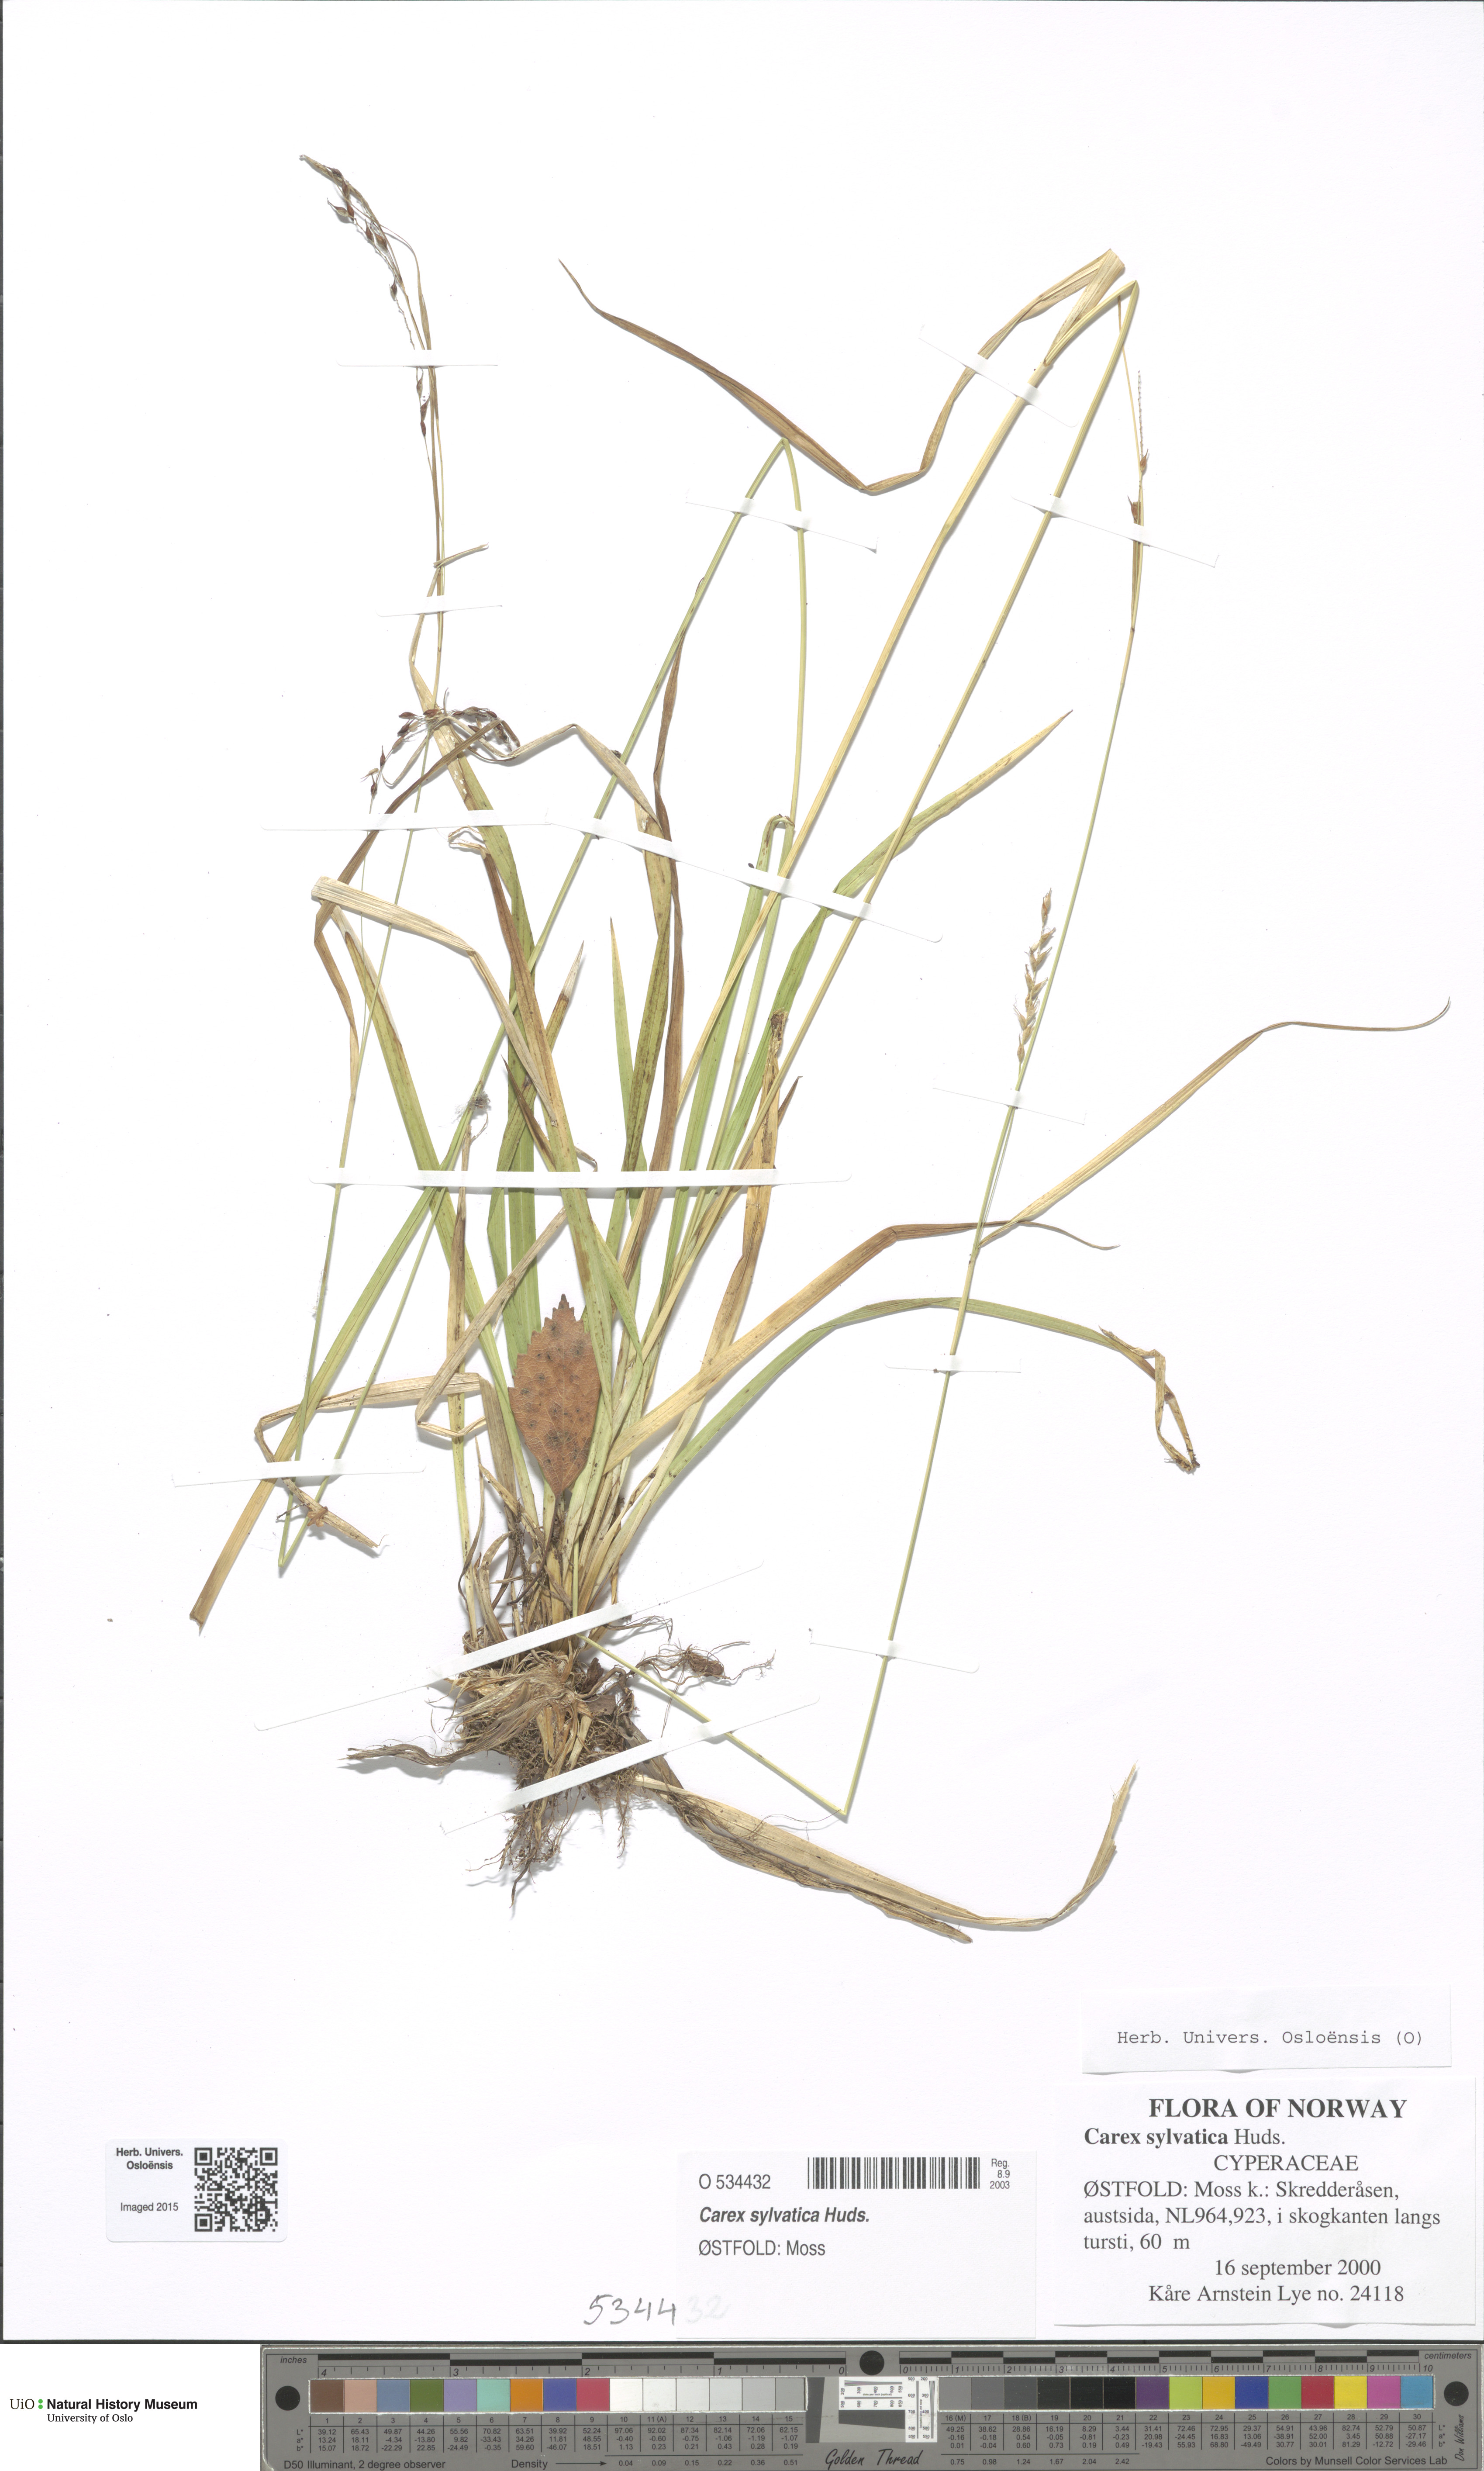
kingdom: Plantae
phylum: Tracheophyta
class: Liliopsida
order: Poales
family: Cyperaceae
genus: Carex
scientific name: Carex sylvatica
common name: Wood-sedge
